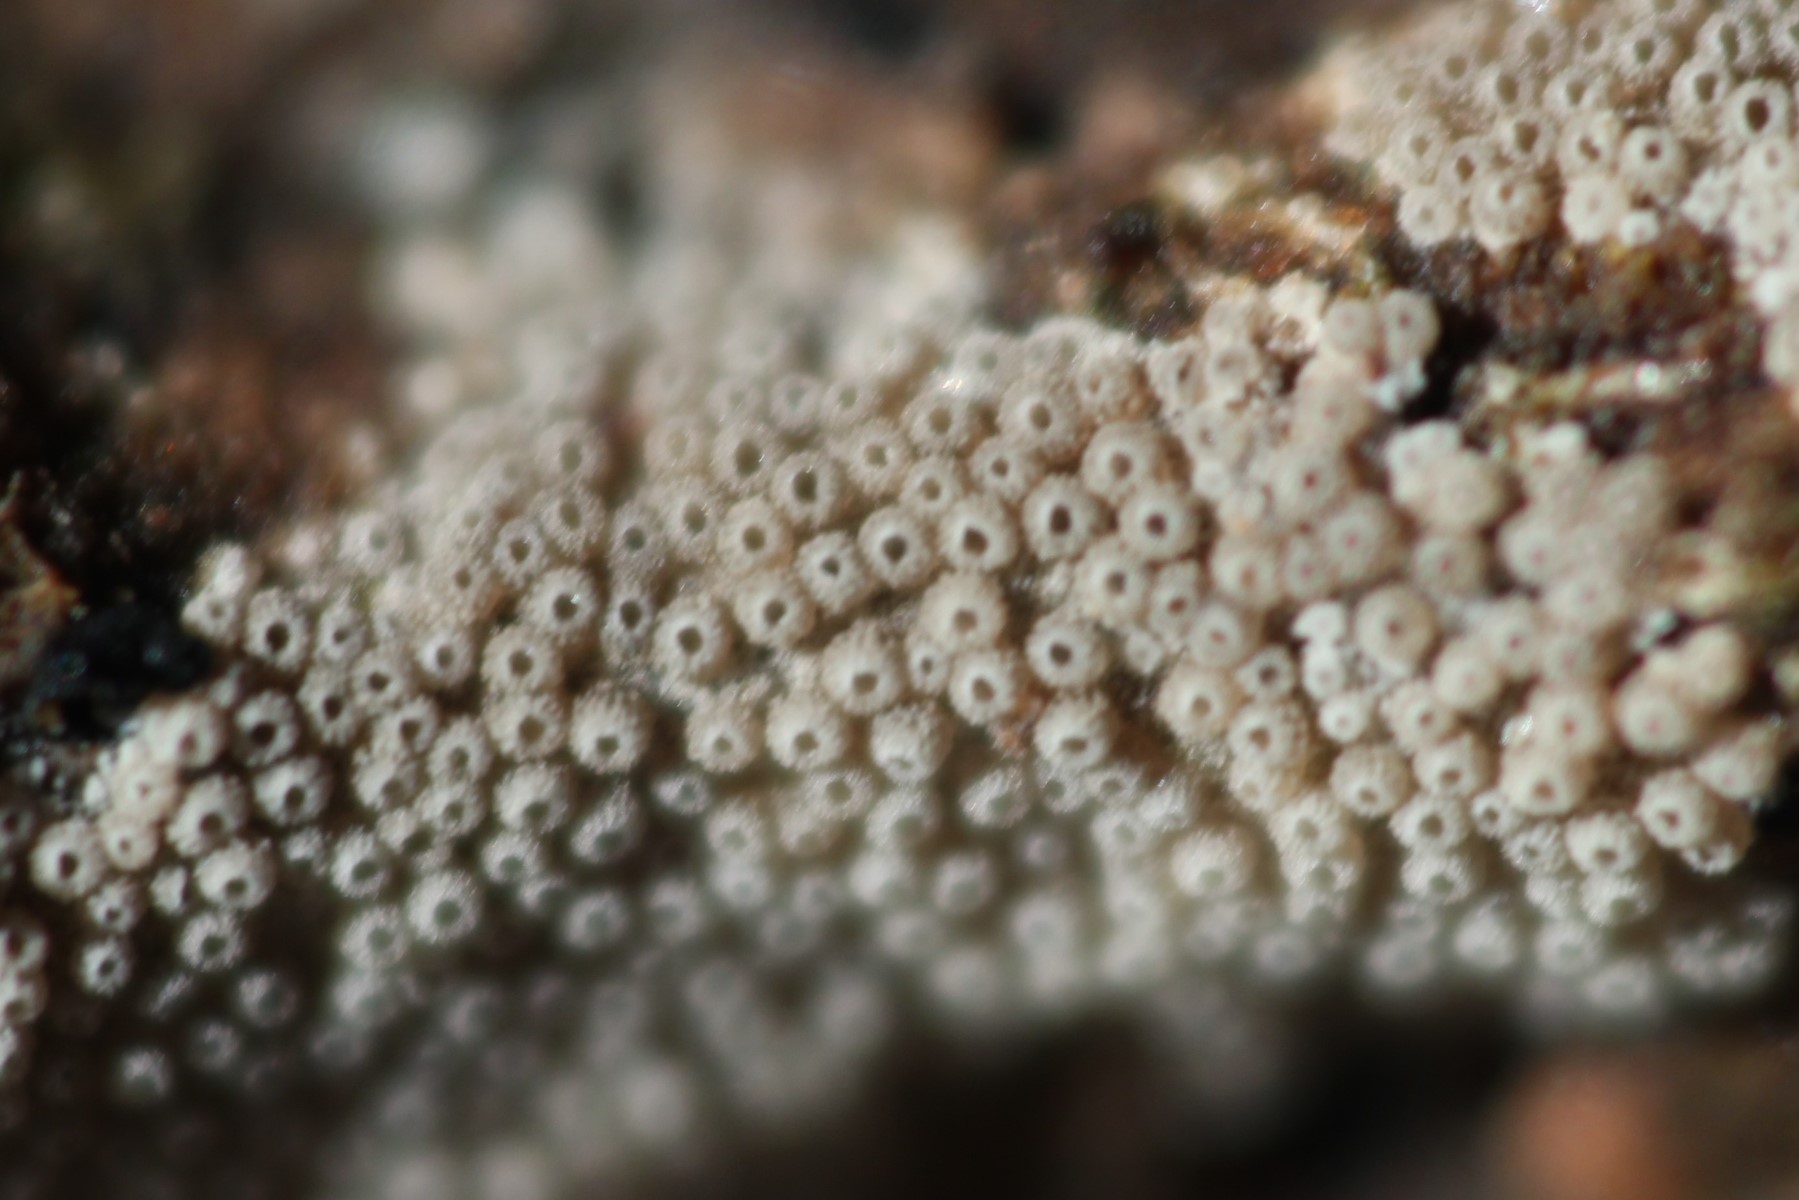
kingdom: Fungi
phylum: Basidiomycota
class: Agaricomycetes
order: Agaricales
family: Pleurotaceae
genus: Resupinatus
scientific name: Resupinatus poriaeformis
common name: tæpperør
